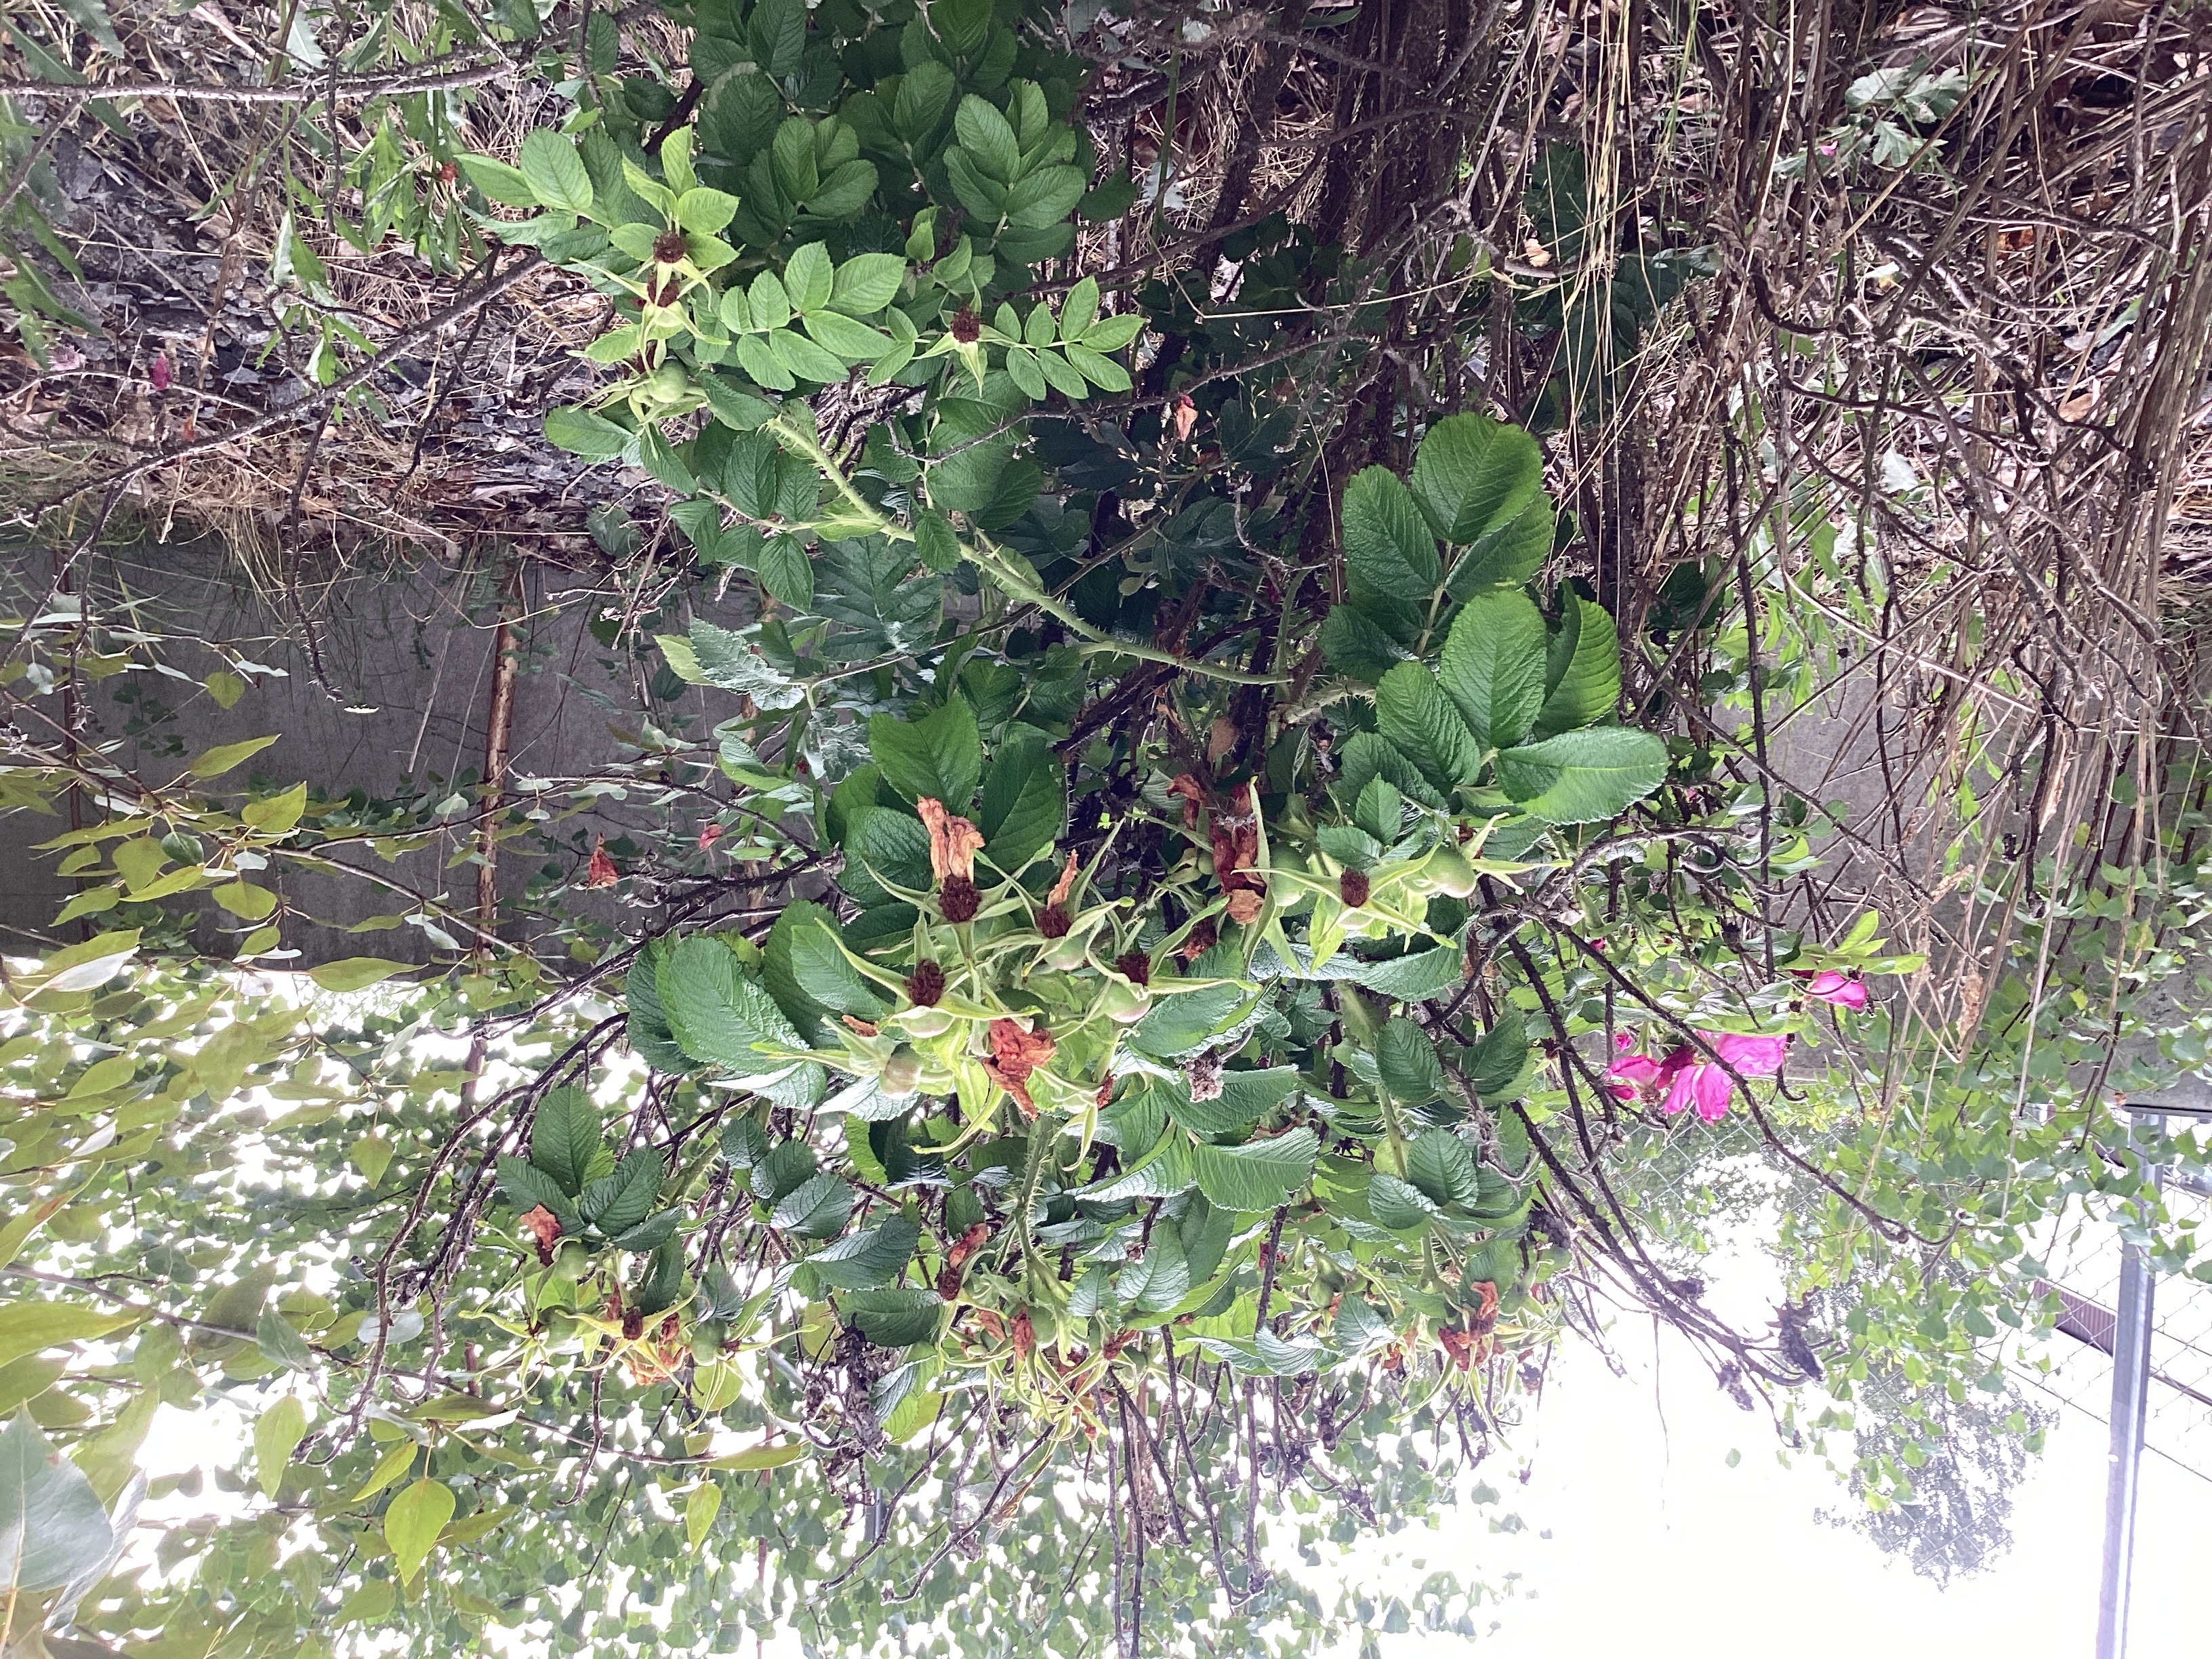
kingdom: Plantae
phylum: Tracheophyta
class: Magnoliopsida
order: Rosales
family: Rosaceae
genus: Rosa
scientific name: Rosa rugosa
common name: rynkerose
